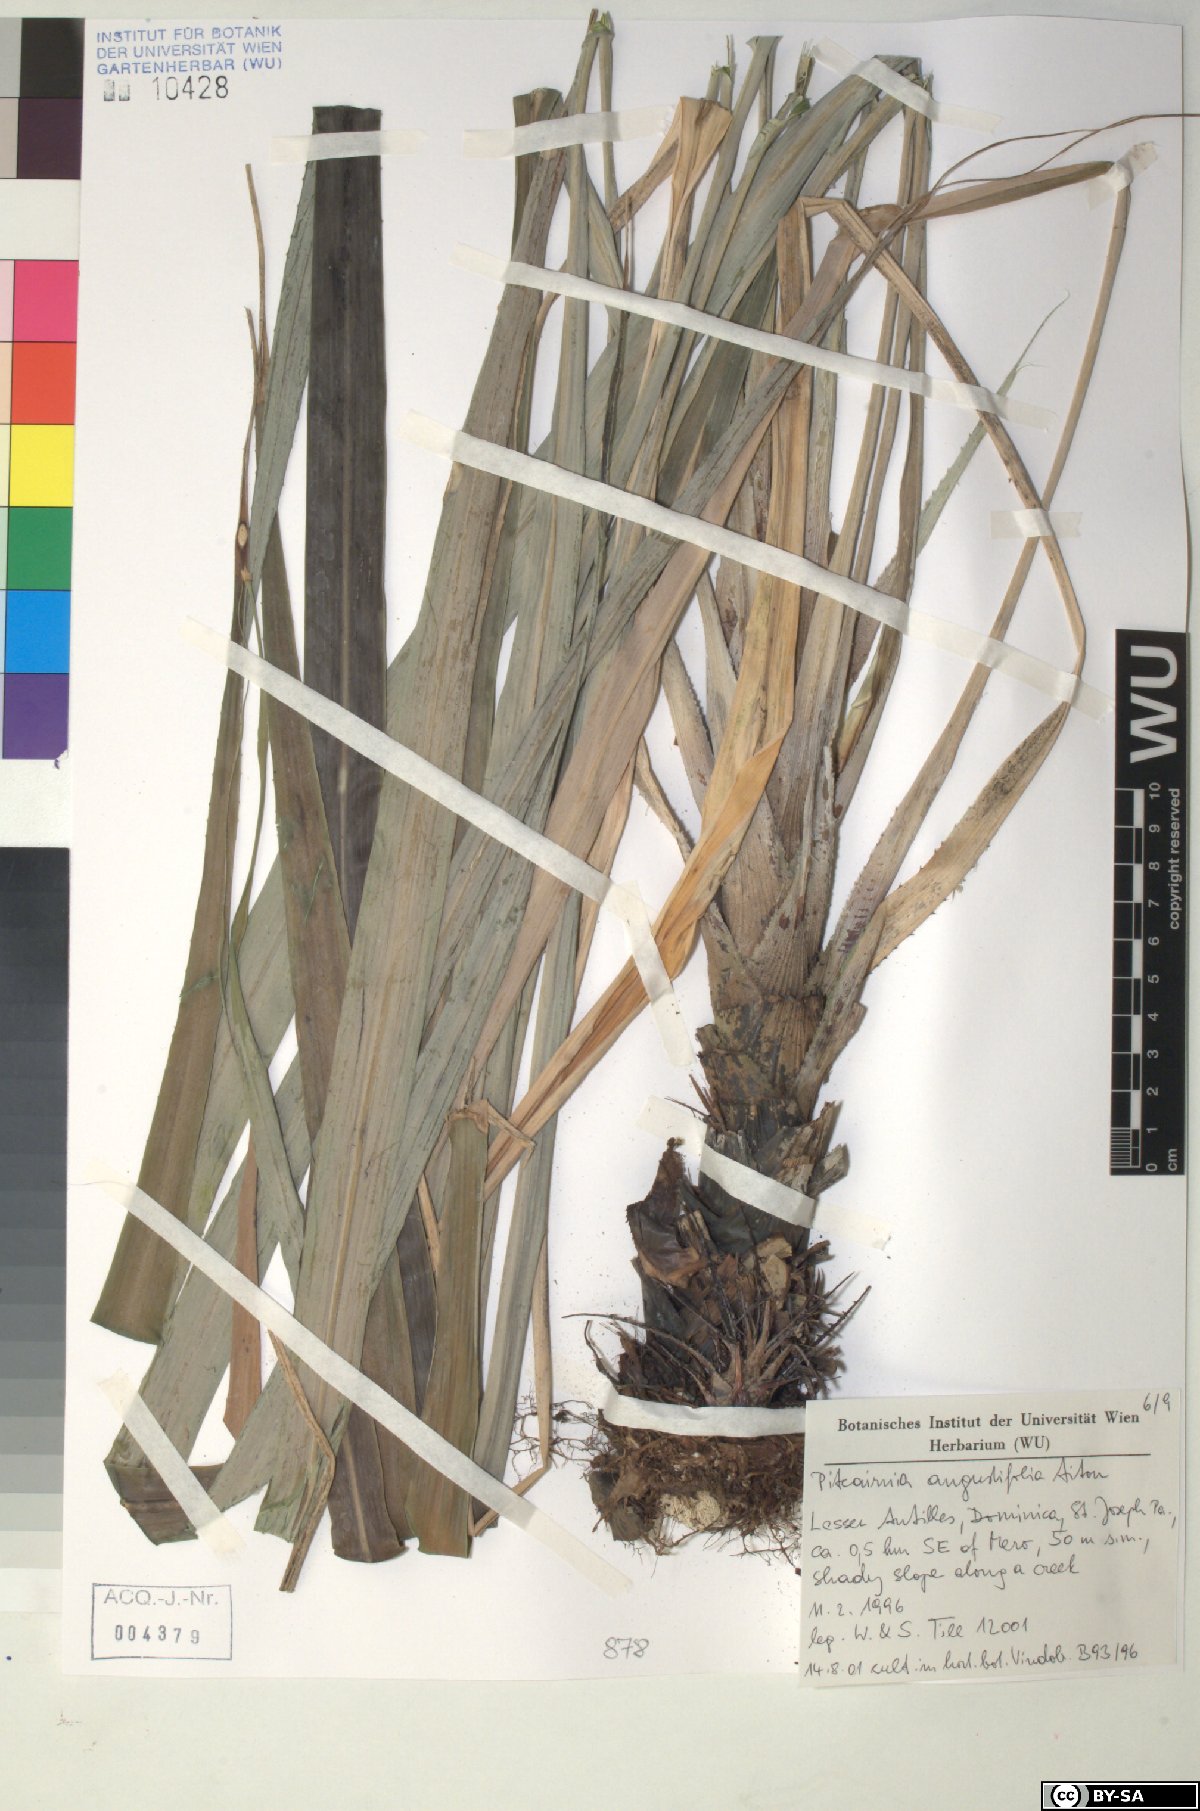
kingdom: Plantae
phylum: Tracheophyta
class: Liliopsida
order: Poales
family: Bromeliaceae
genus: Pitcairnia
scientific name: Pitcairnia angustifolia
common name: Clapper
